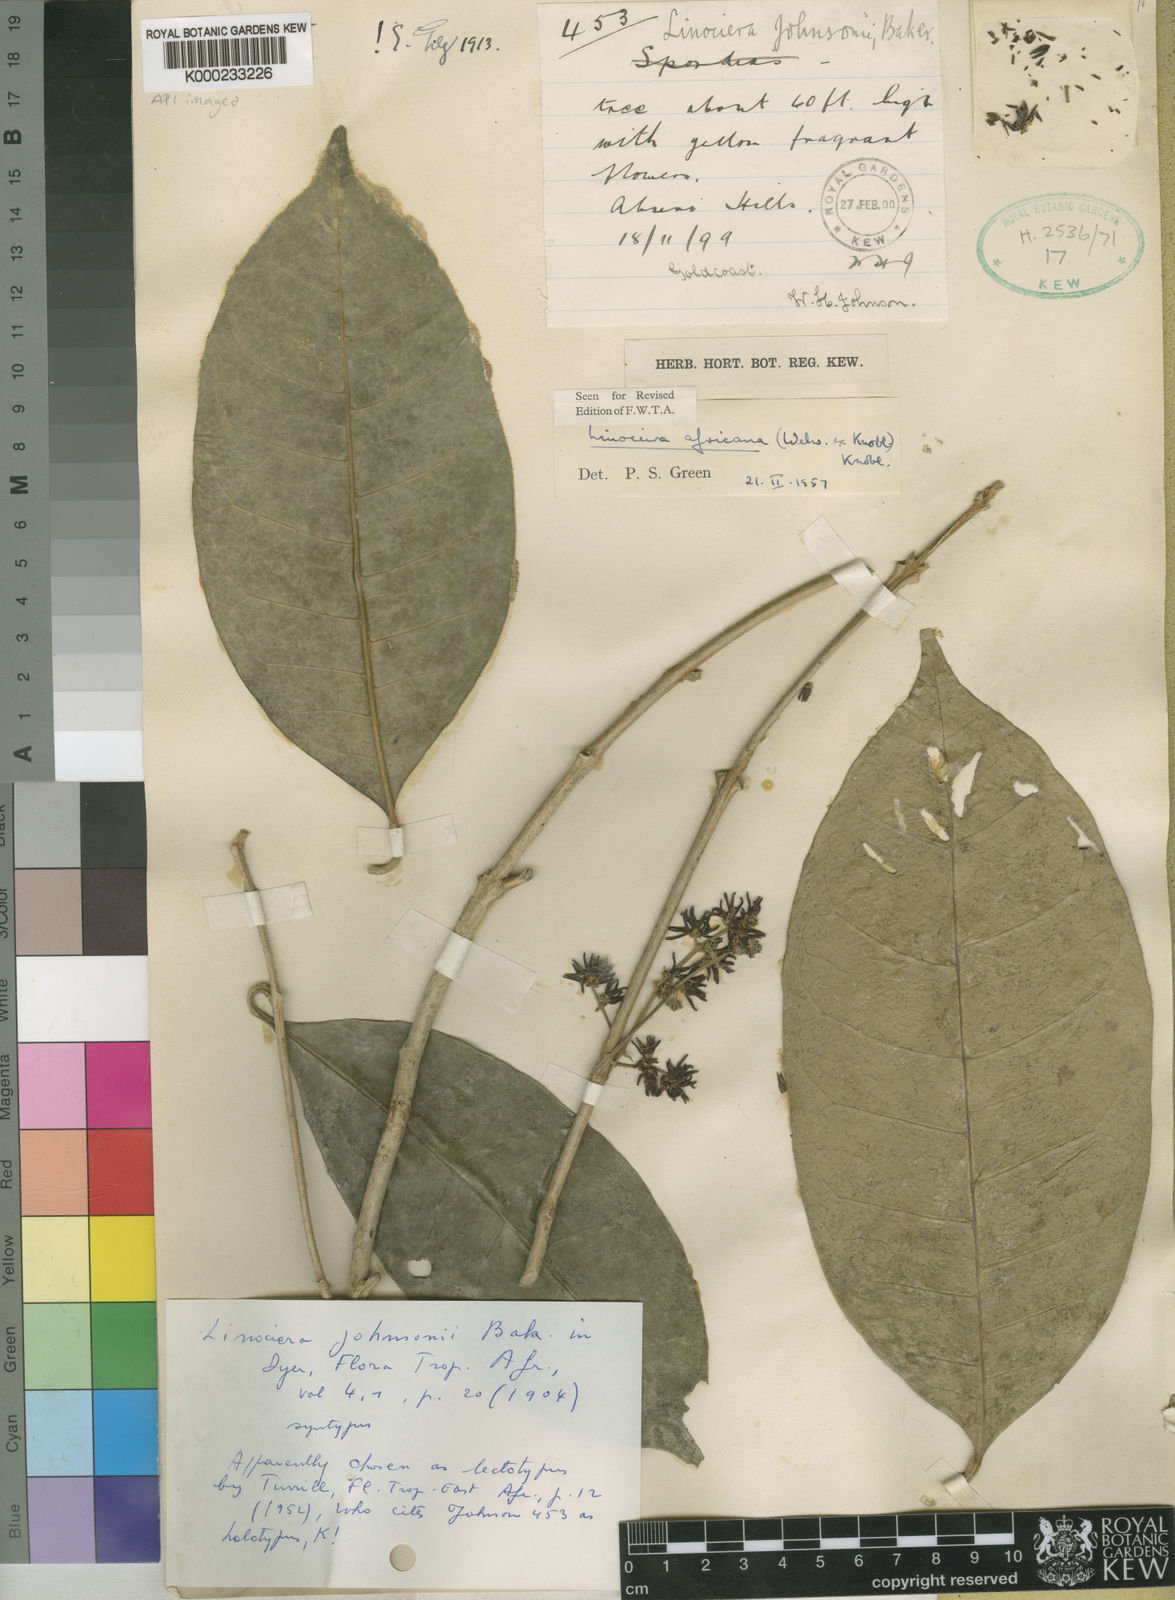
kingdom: Plantae
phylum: Tracheophyta
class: Magnoliopsida
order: Lamiales
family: Oleaceae
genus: Noronhia
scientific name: Noronhia africana
